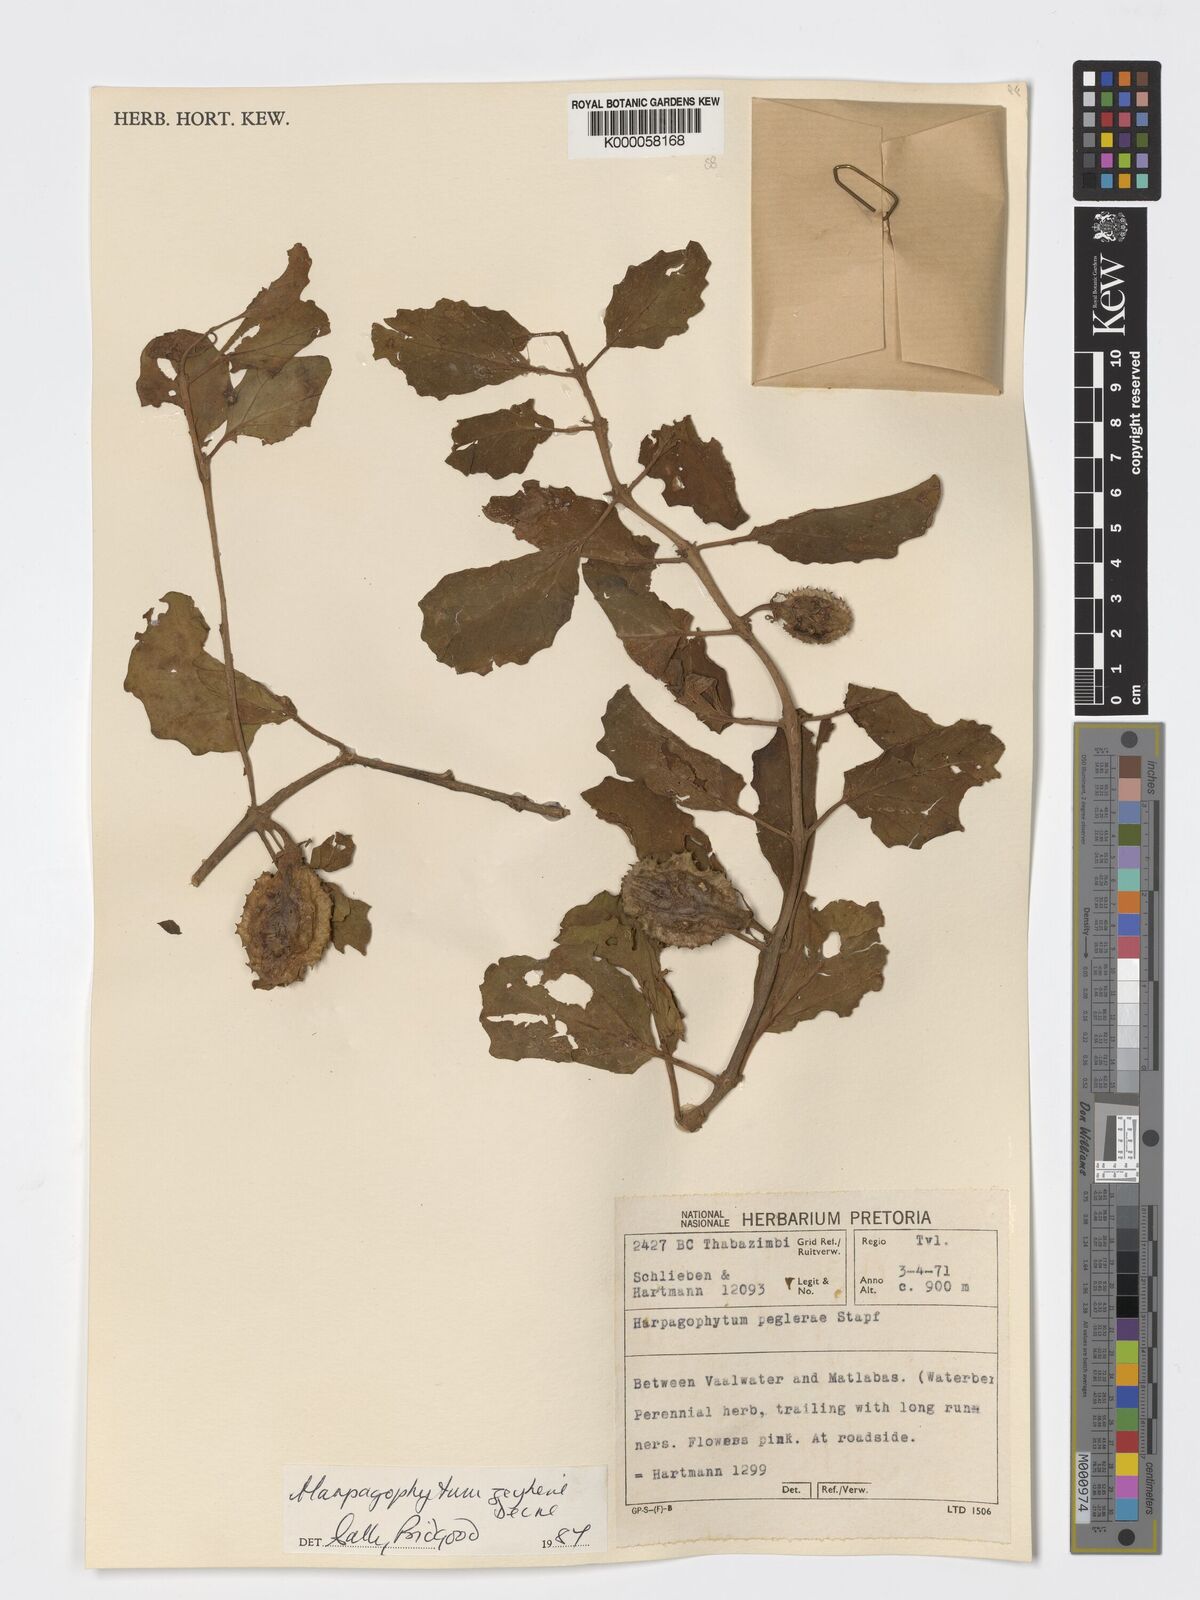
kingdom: Plantae
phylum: Tracheophyta
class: Magnoliopsida
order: Lamiales
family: Pedaliaceae
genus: Harpagophytum
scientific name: Harpagophytum zeyheri
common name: Grappleplant
